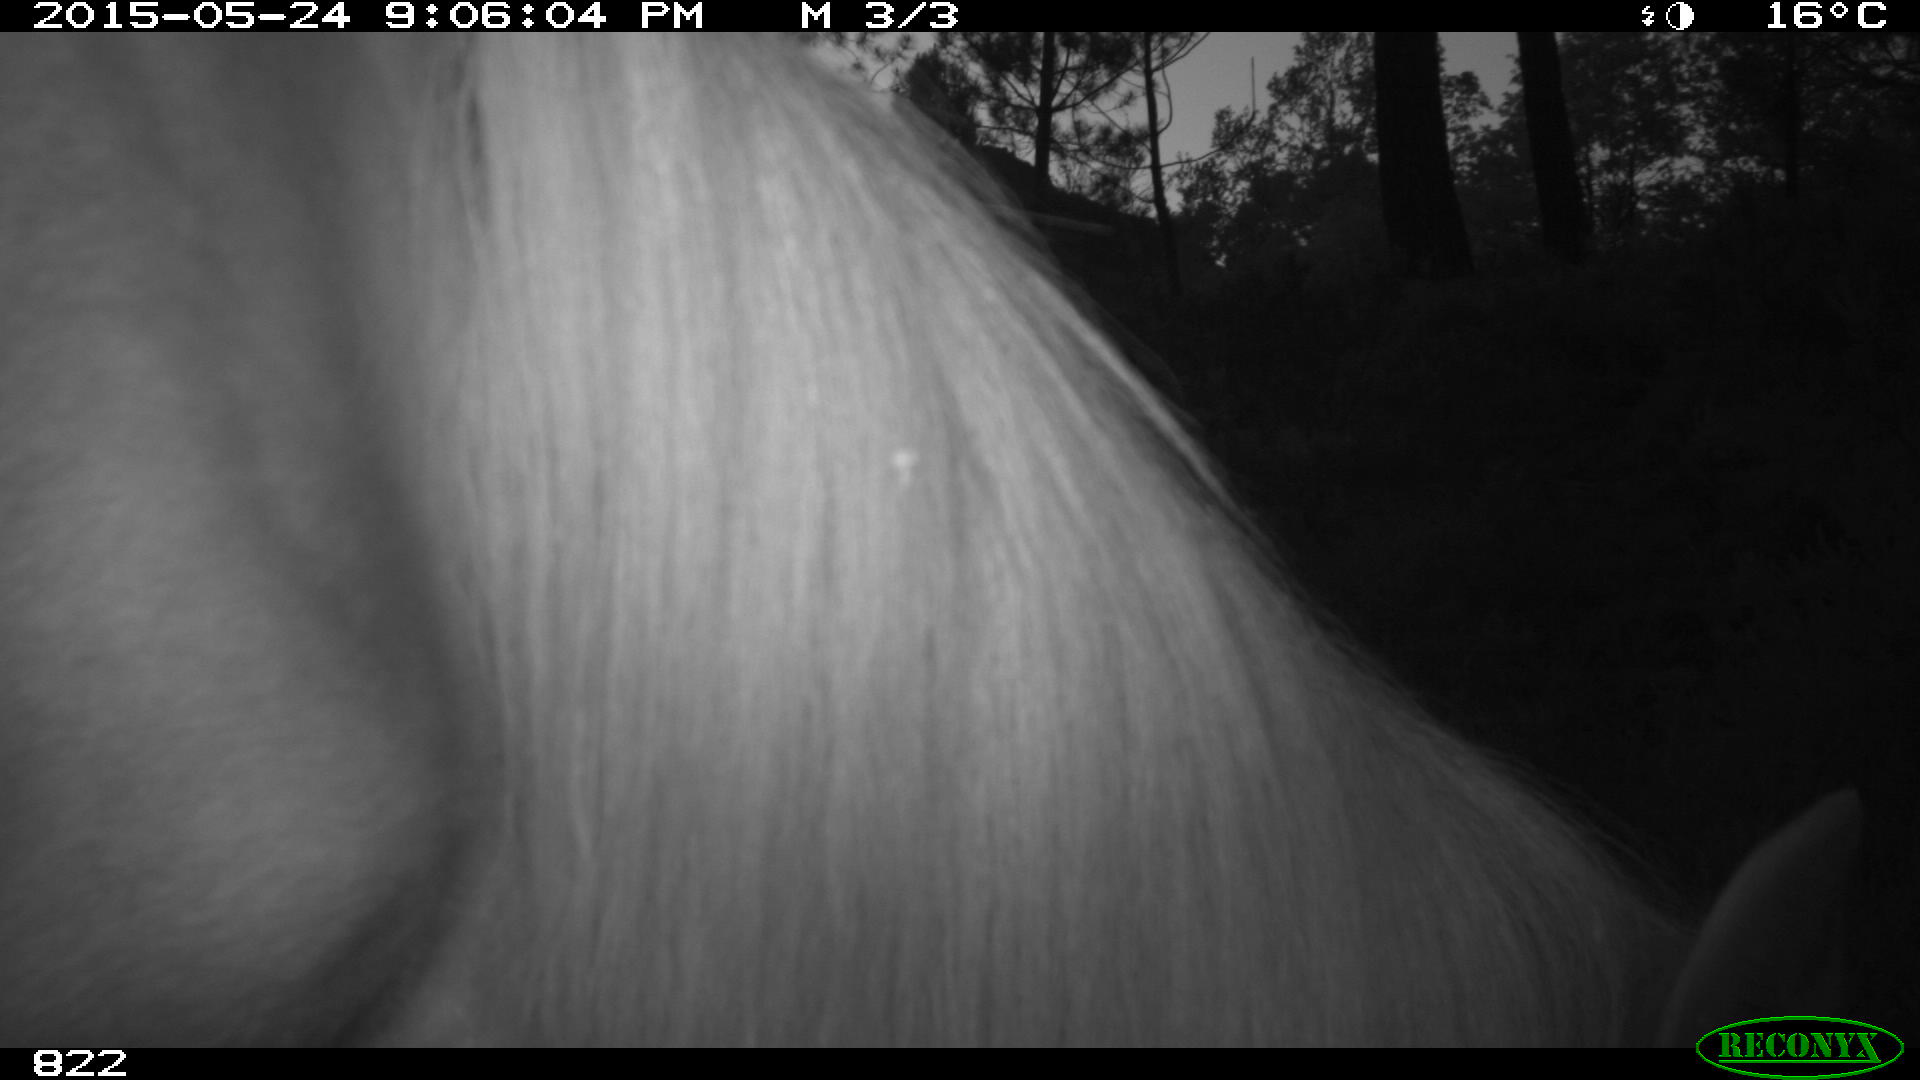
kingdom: Animalia
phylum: Chordata
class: Mammalia
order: Perissodactyla
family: Equidae
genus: Equus
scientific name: Equus caballus
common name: Horse
